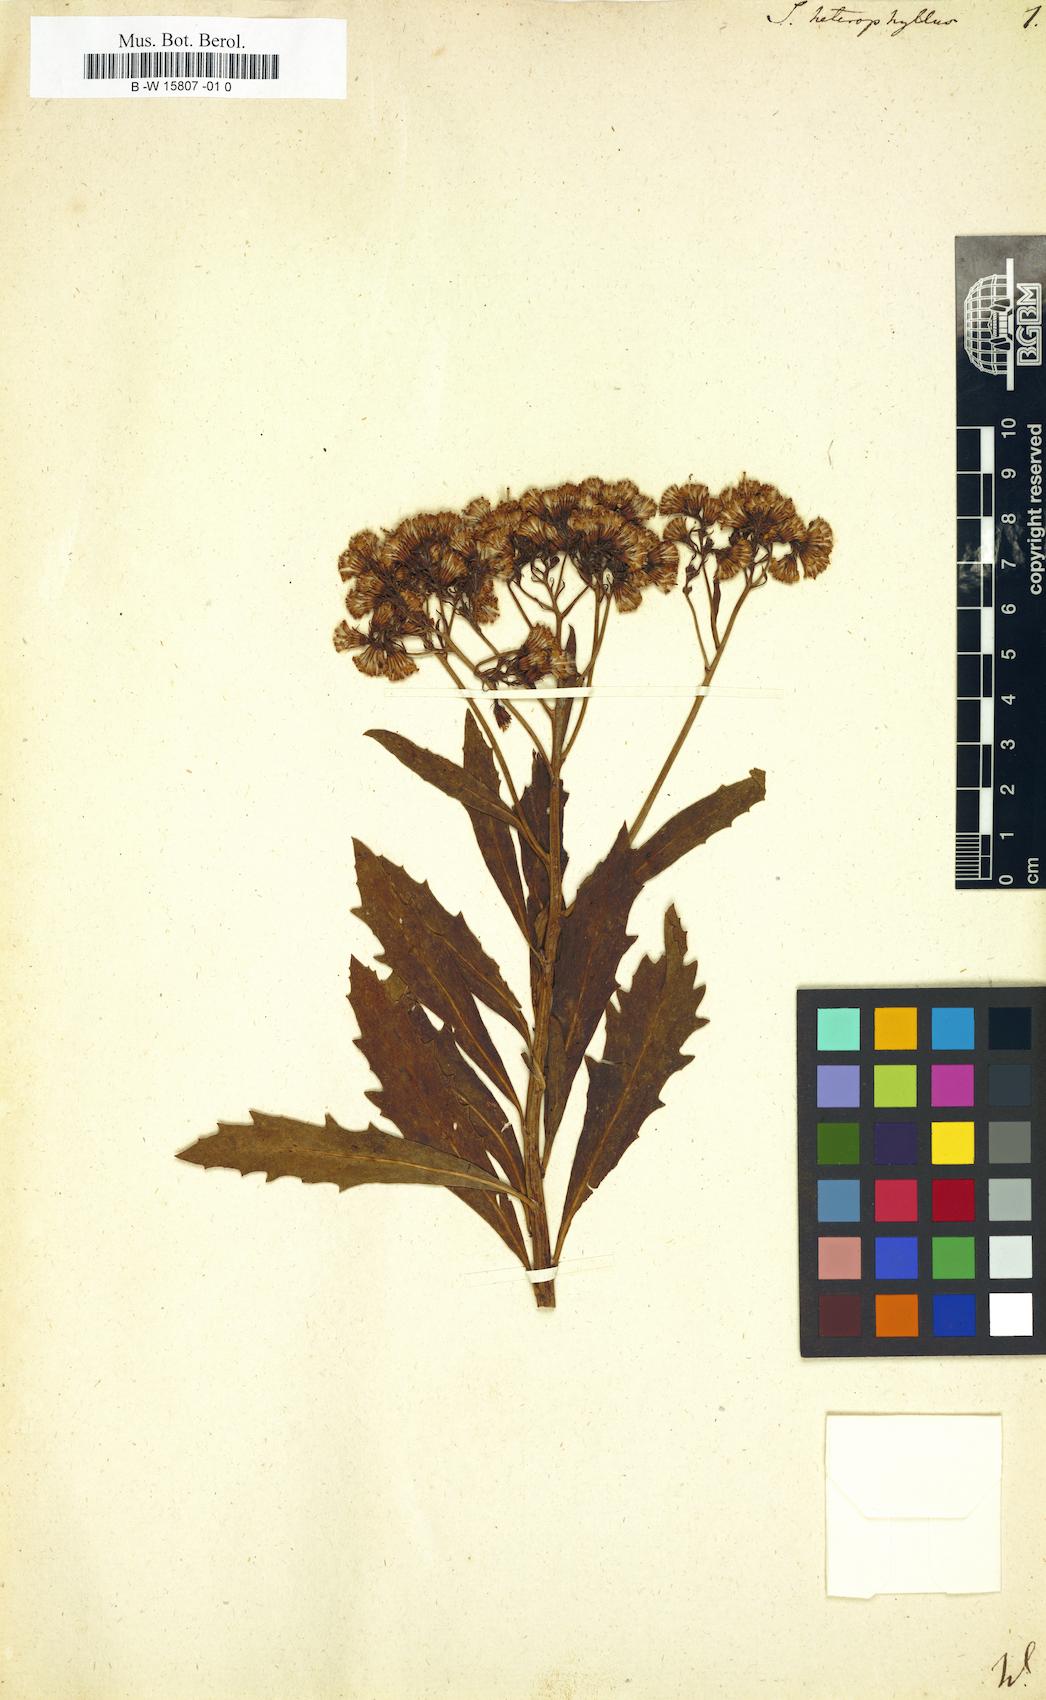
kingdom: Plantae
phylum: Tracheophyta
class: Magnoliopsida
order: Asterales
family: Asteraceae
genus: Senecio
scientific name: Senecio abruptus
